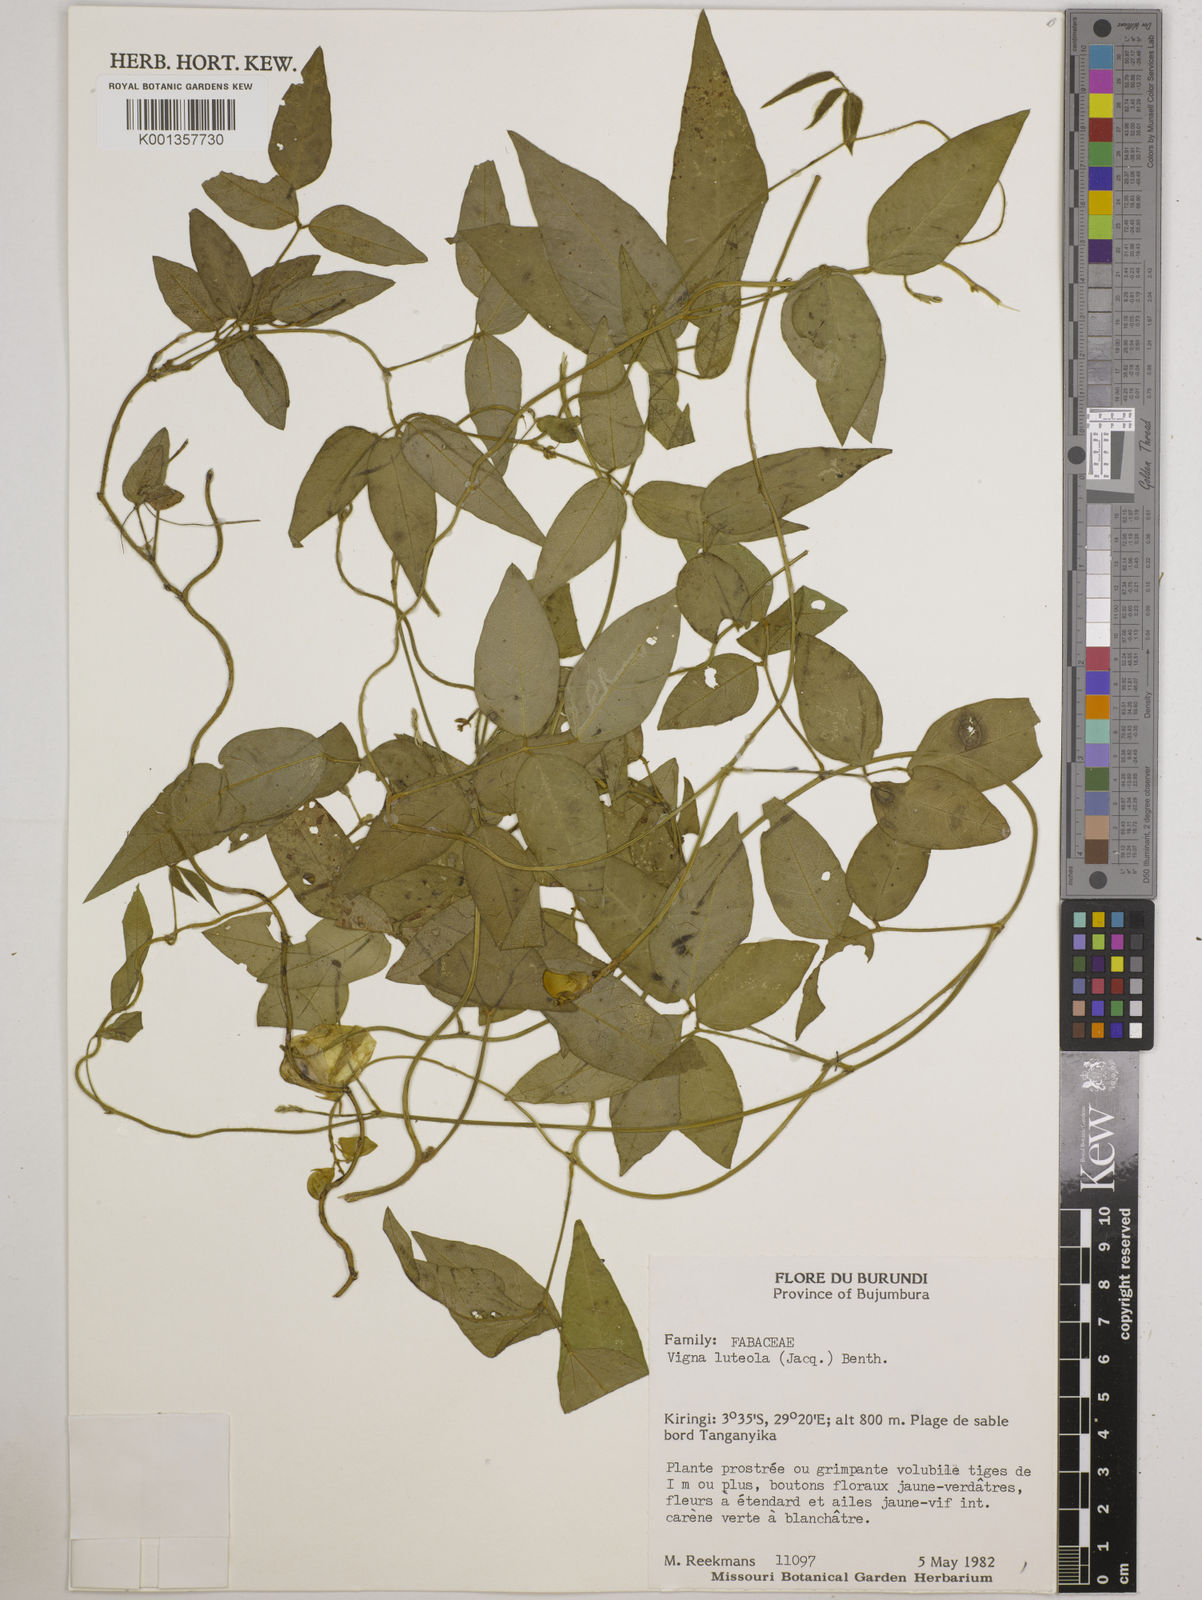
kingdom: Plantae
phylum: Tracheophyta
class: Magnoliopsida
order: Fabales
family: Fabaceae
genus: Vigna
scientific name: Vigna luteola
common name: Hairypod cowpea
